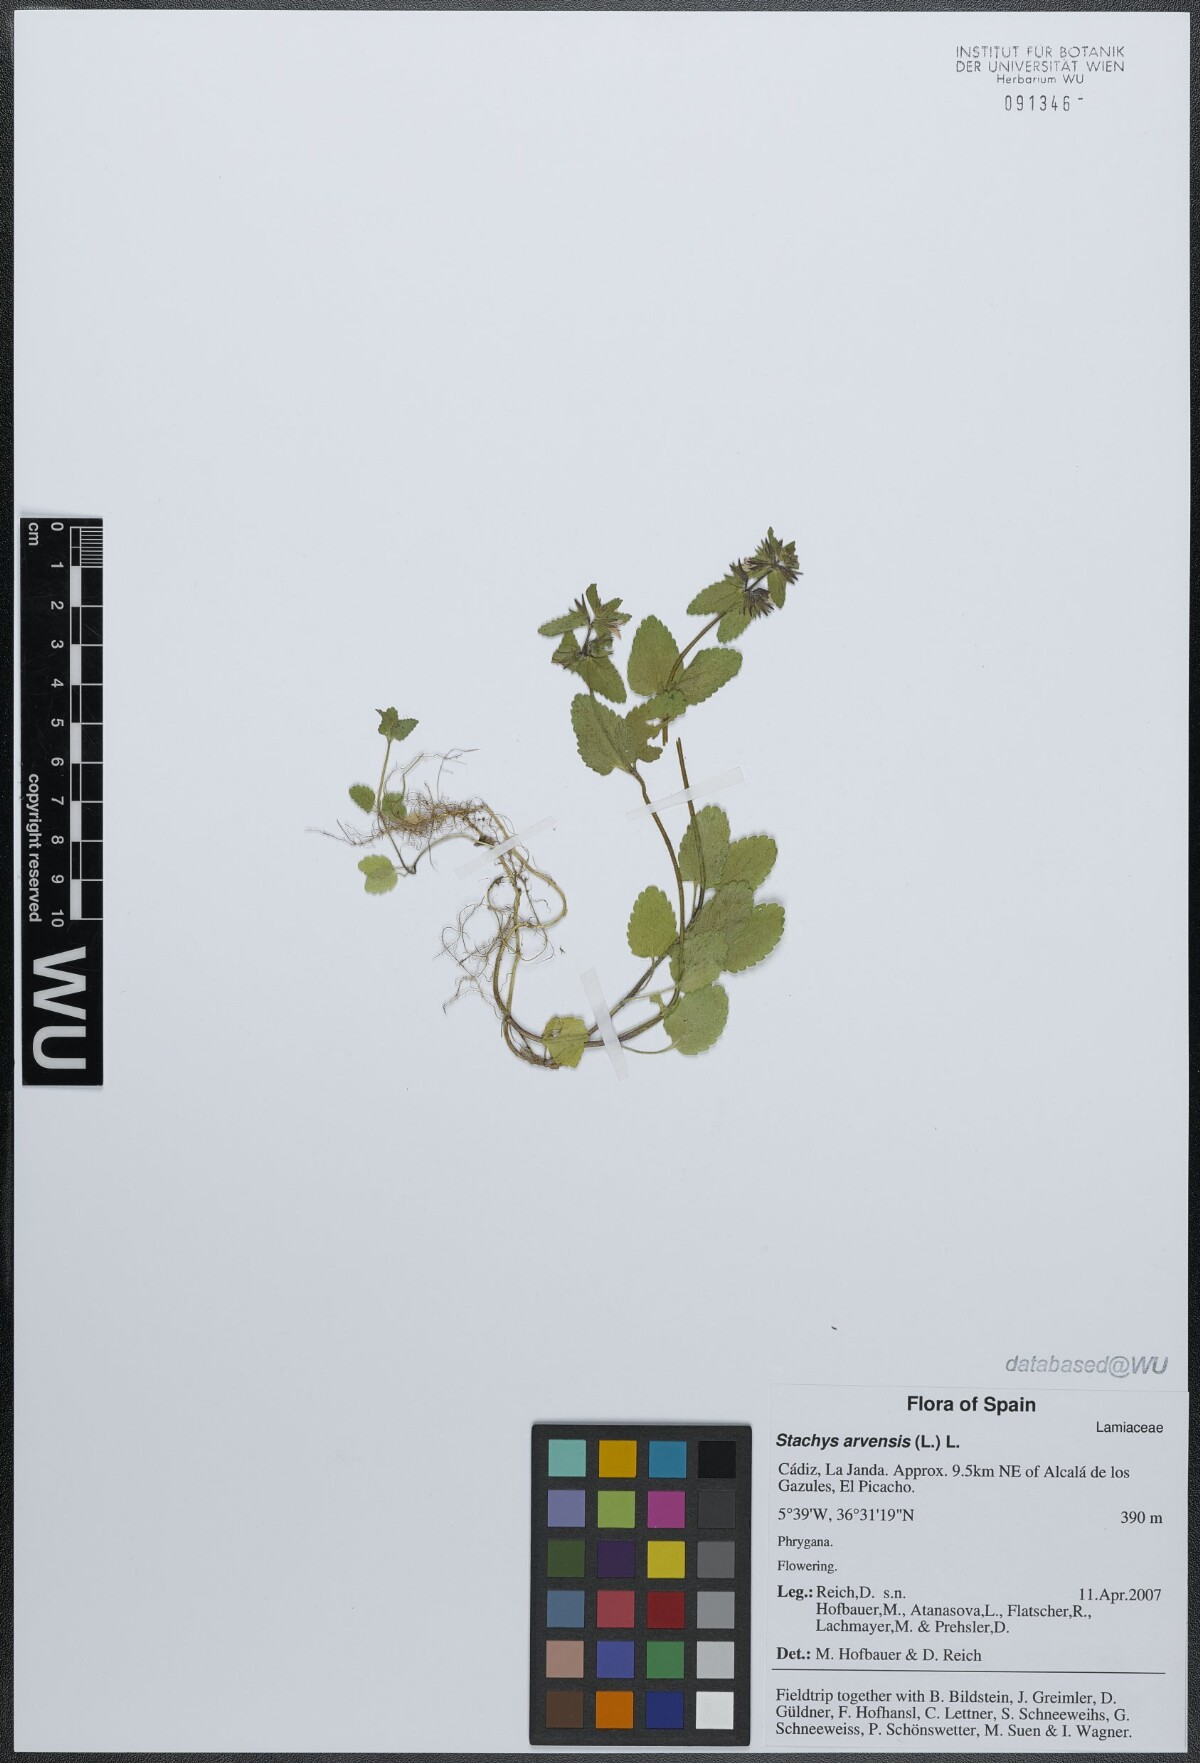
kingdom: Plantae
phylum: Tracheophyta
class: Magnoliopsida
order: Lamiales
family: Lamiaceae
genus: Stachys
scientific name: Stachys arvensis
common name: Field woundwort
